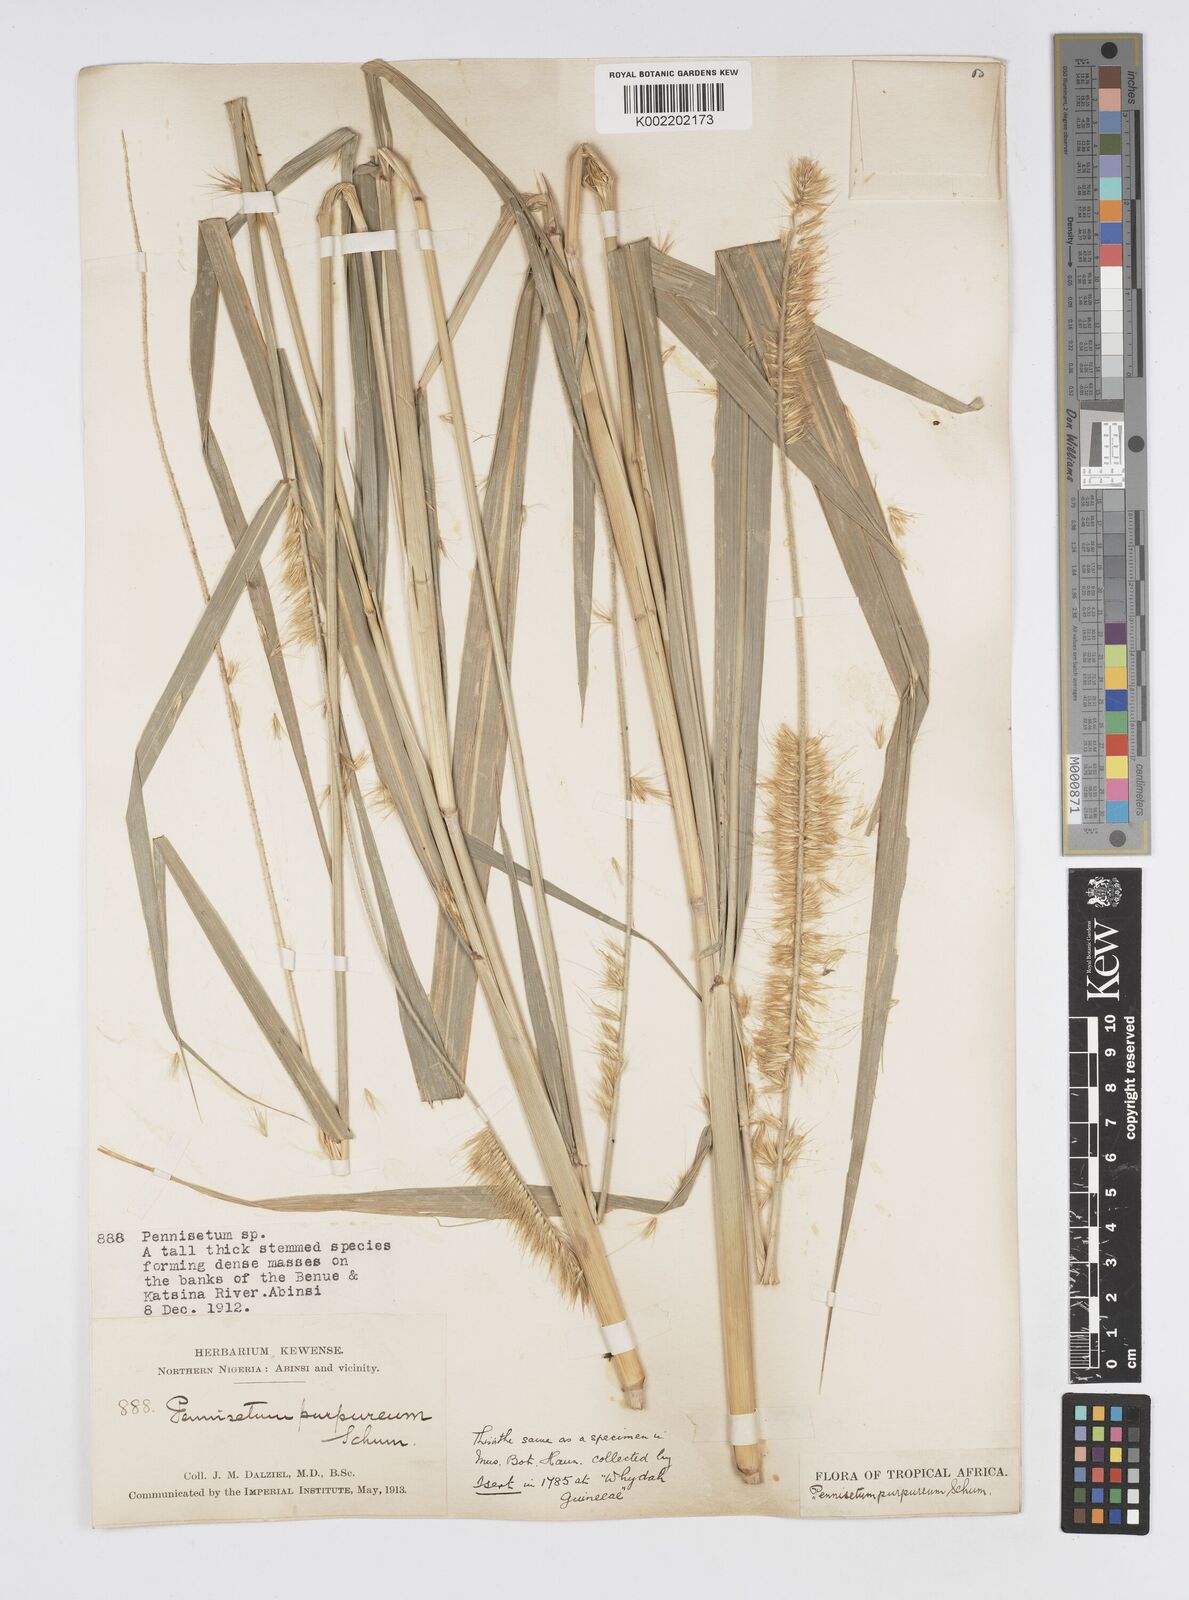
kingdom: Plantae
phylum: Tracheophyta
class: Liliopsida
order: Poales
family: Poaceae
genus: Cenchrus
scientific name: Cenchrus purpureus
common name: Elephant grass
